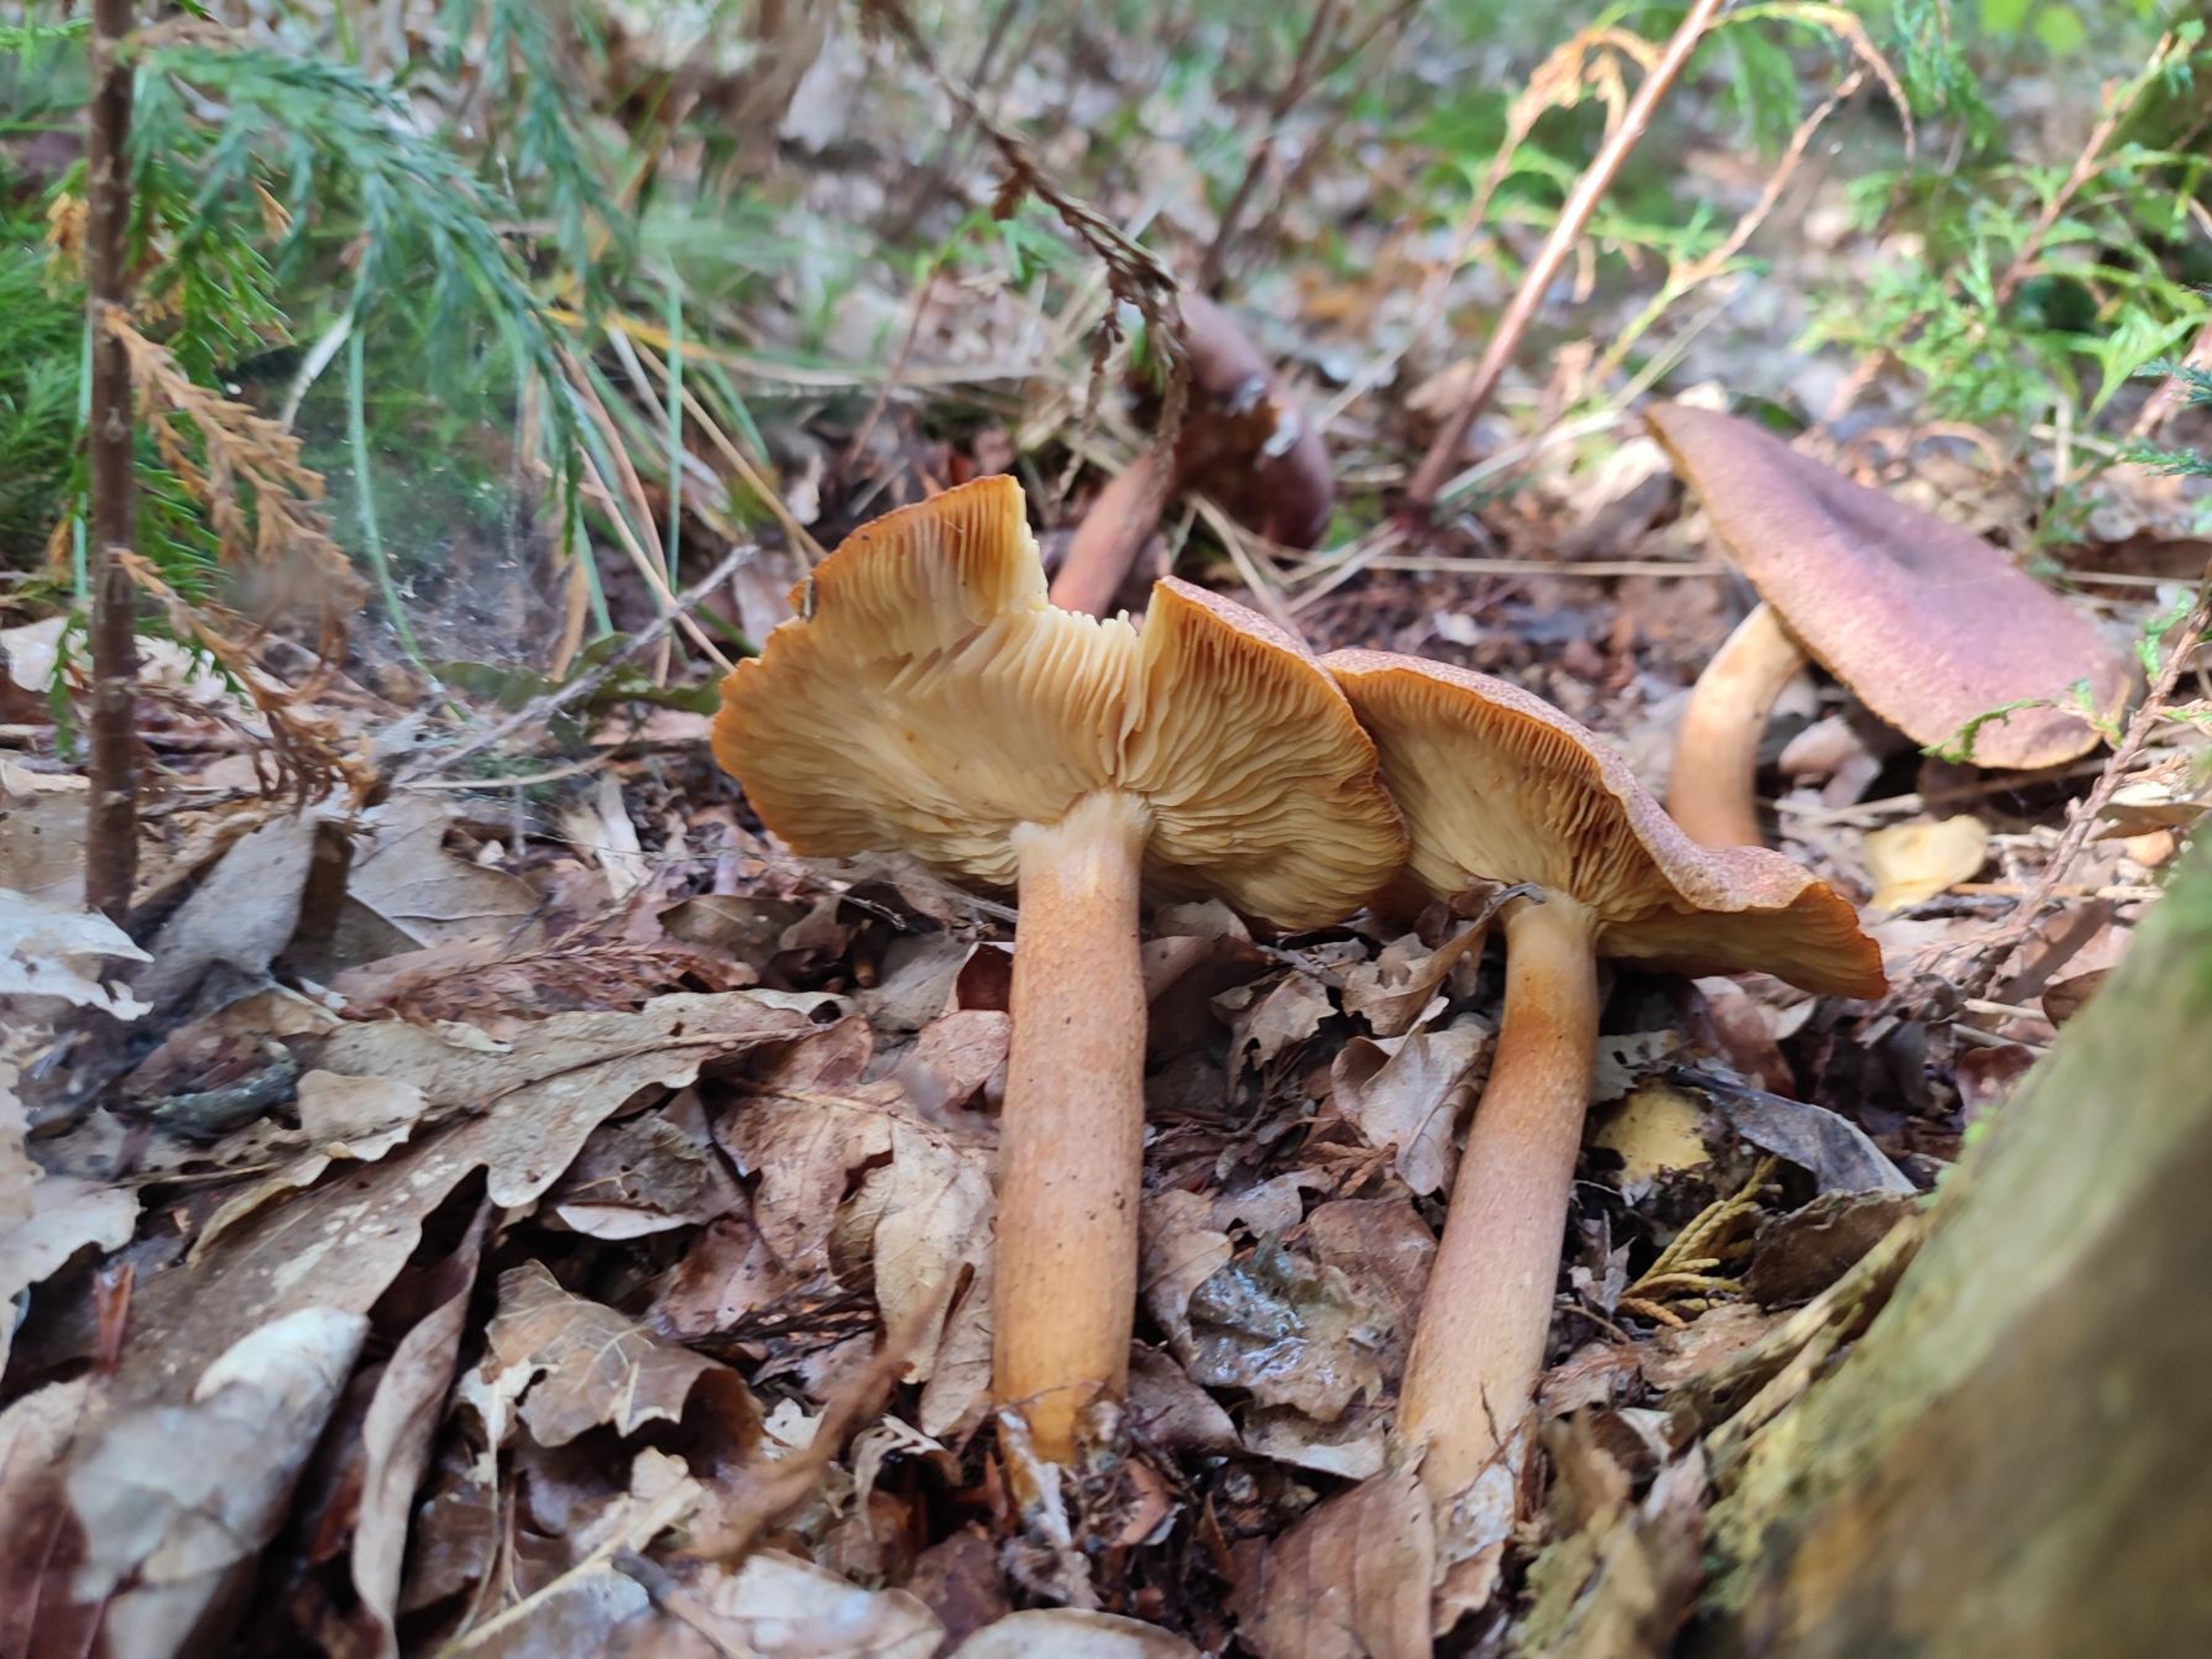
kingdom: Fungi
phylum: Basidiomycota
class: Agaricomycetes
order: Agaricales
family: Tricholomataceae
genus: Tricholomopsis
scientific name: Tricholomopsis rutilans
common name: Purpur-væbnerhat
